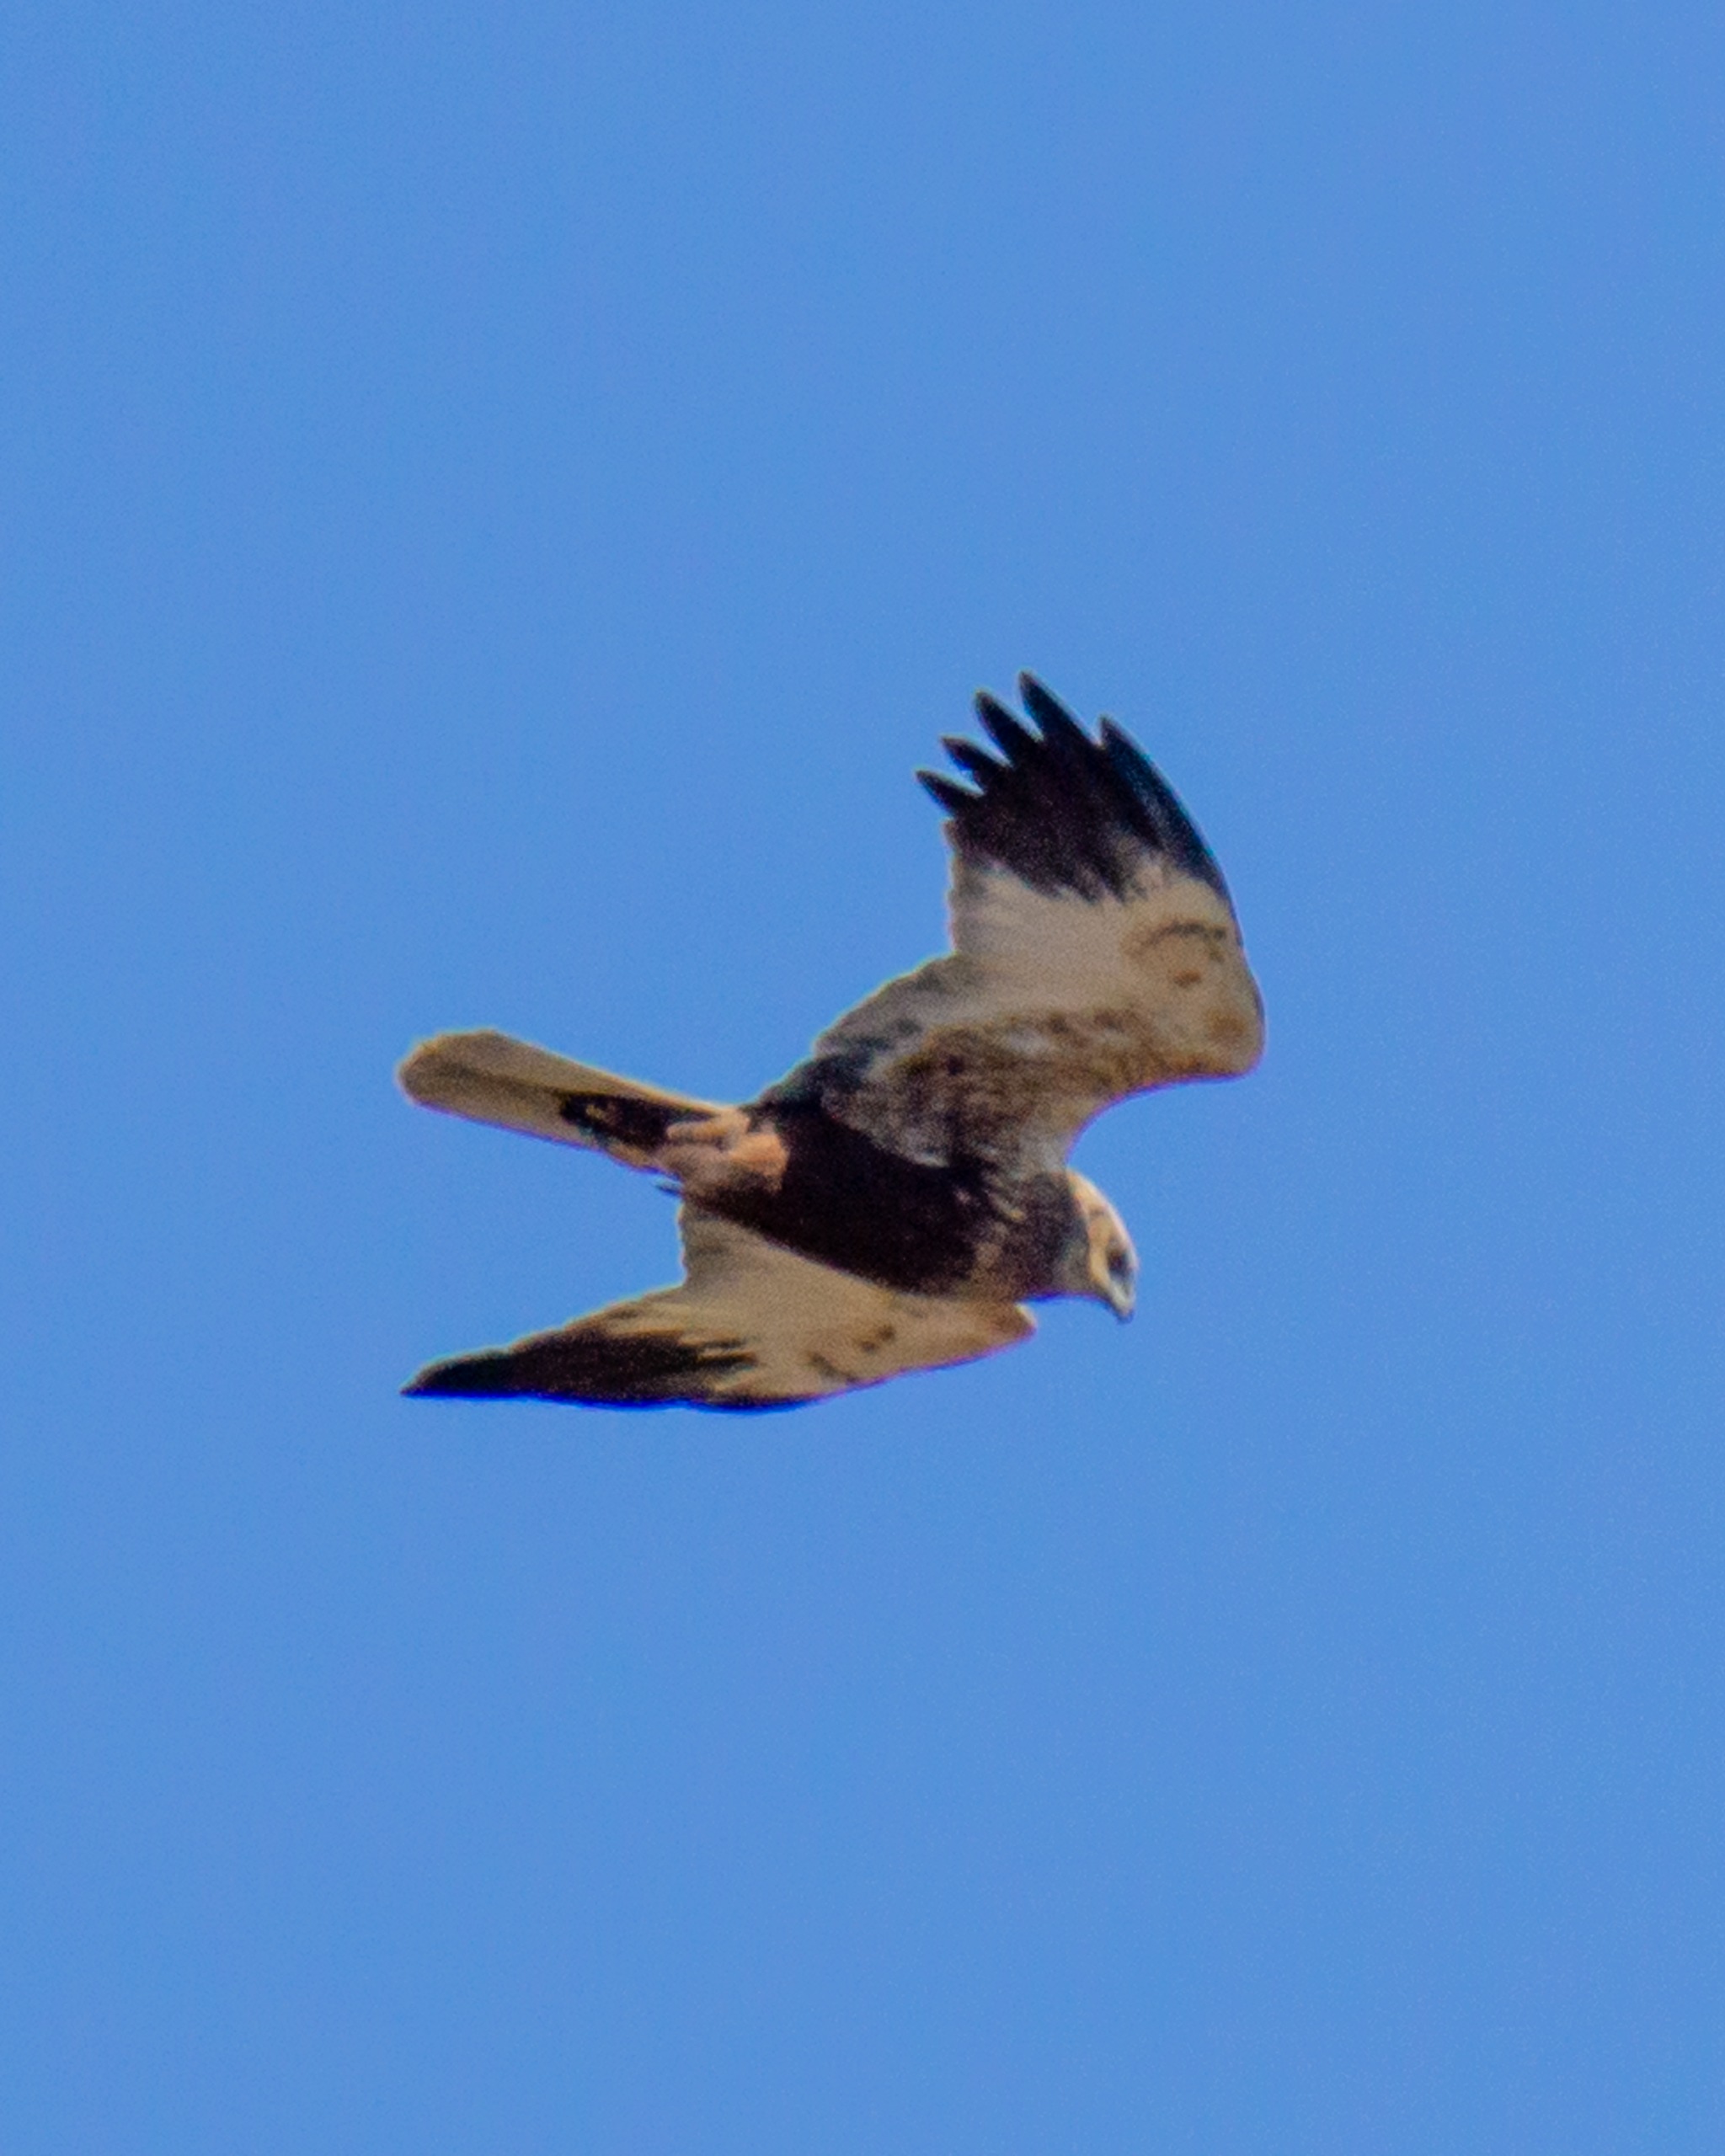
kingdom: Animalia
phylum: Chordata
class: Aves
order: Accipitriformes
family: Accipitridae
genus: Circus
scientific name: Circus aeruginosus
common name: Rørhøg
